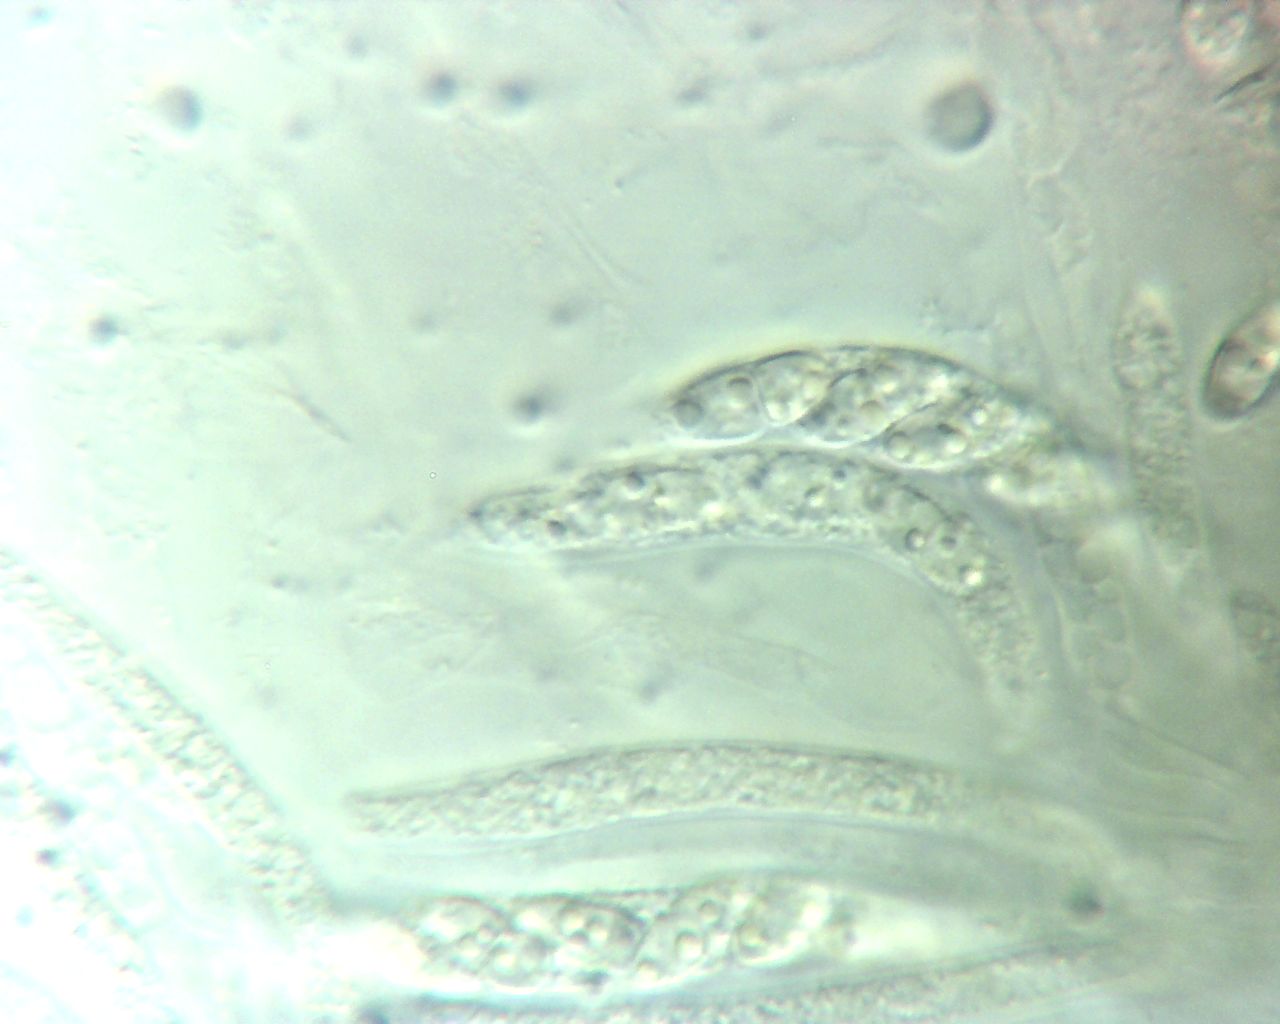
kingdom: Fungi
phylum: Ascomycota
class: Sordariomycetes
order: Hypocreales
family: Nectriaceae
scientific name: Nectriaceae
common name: cinnobersvampfamilien
